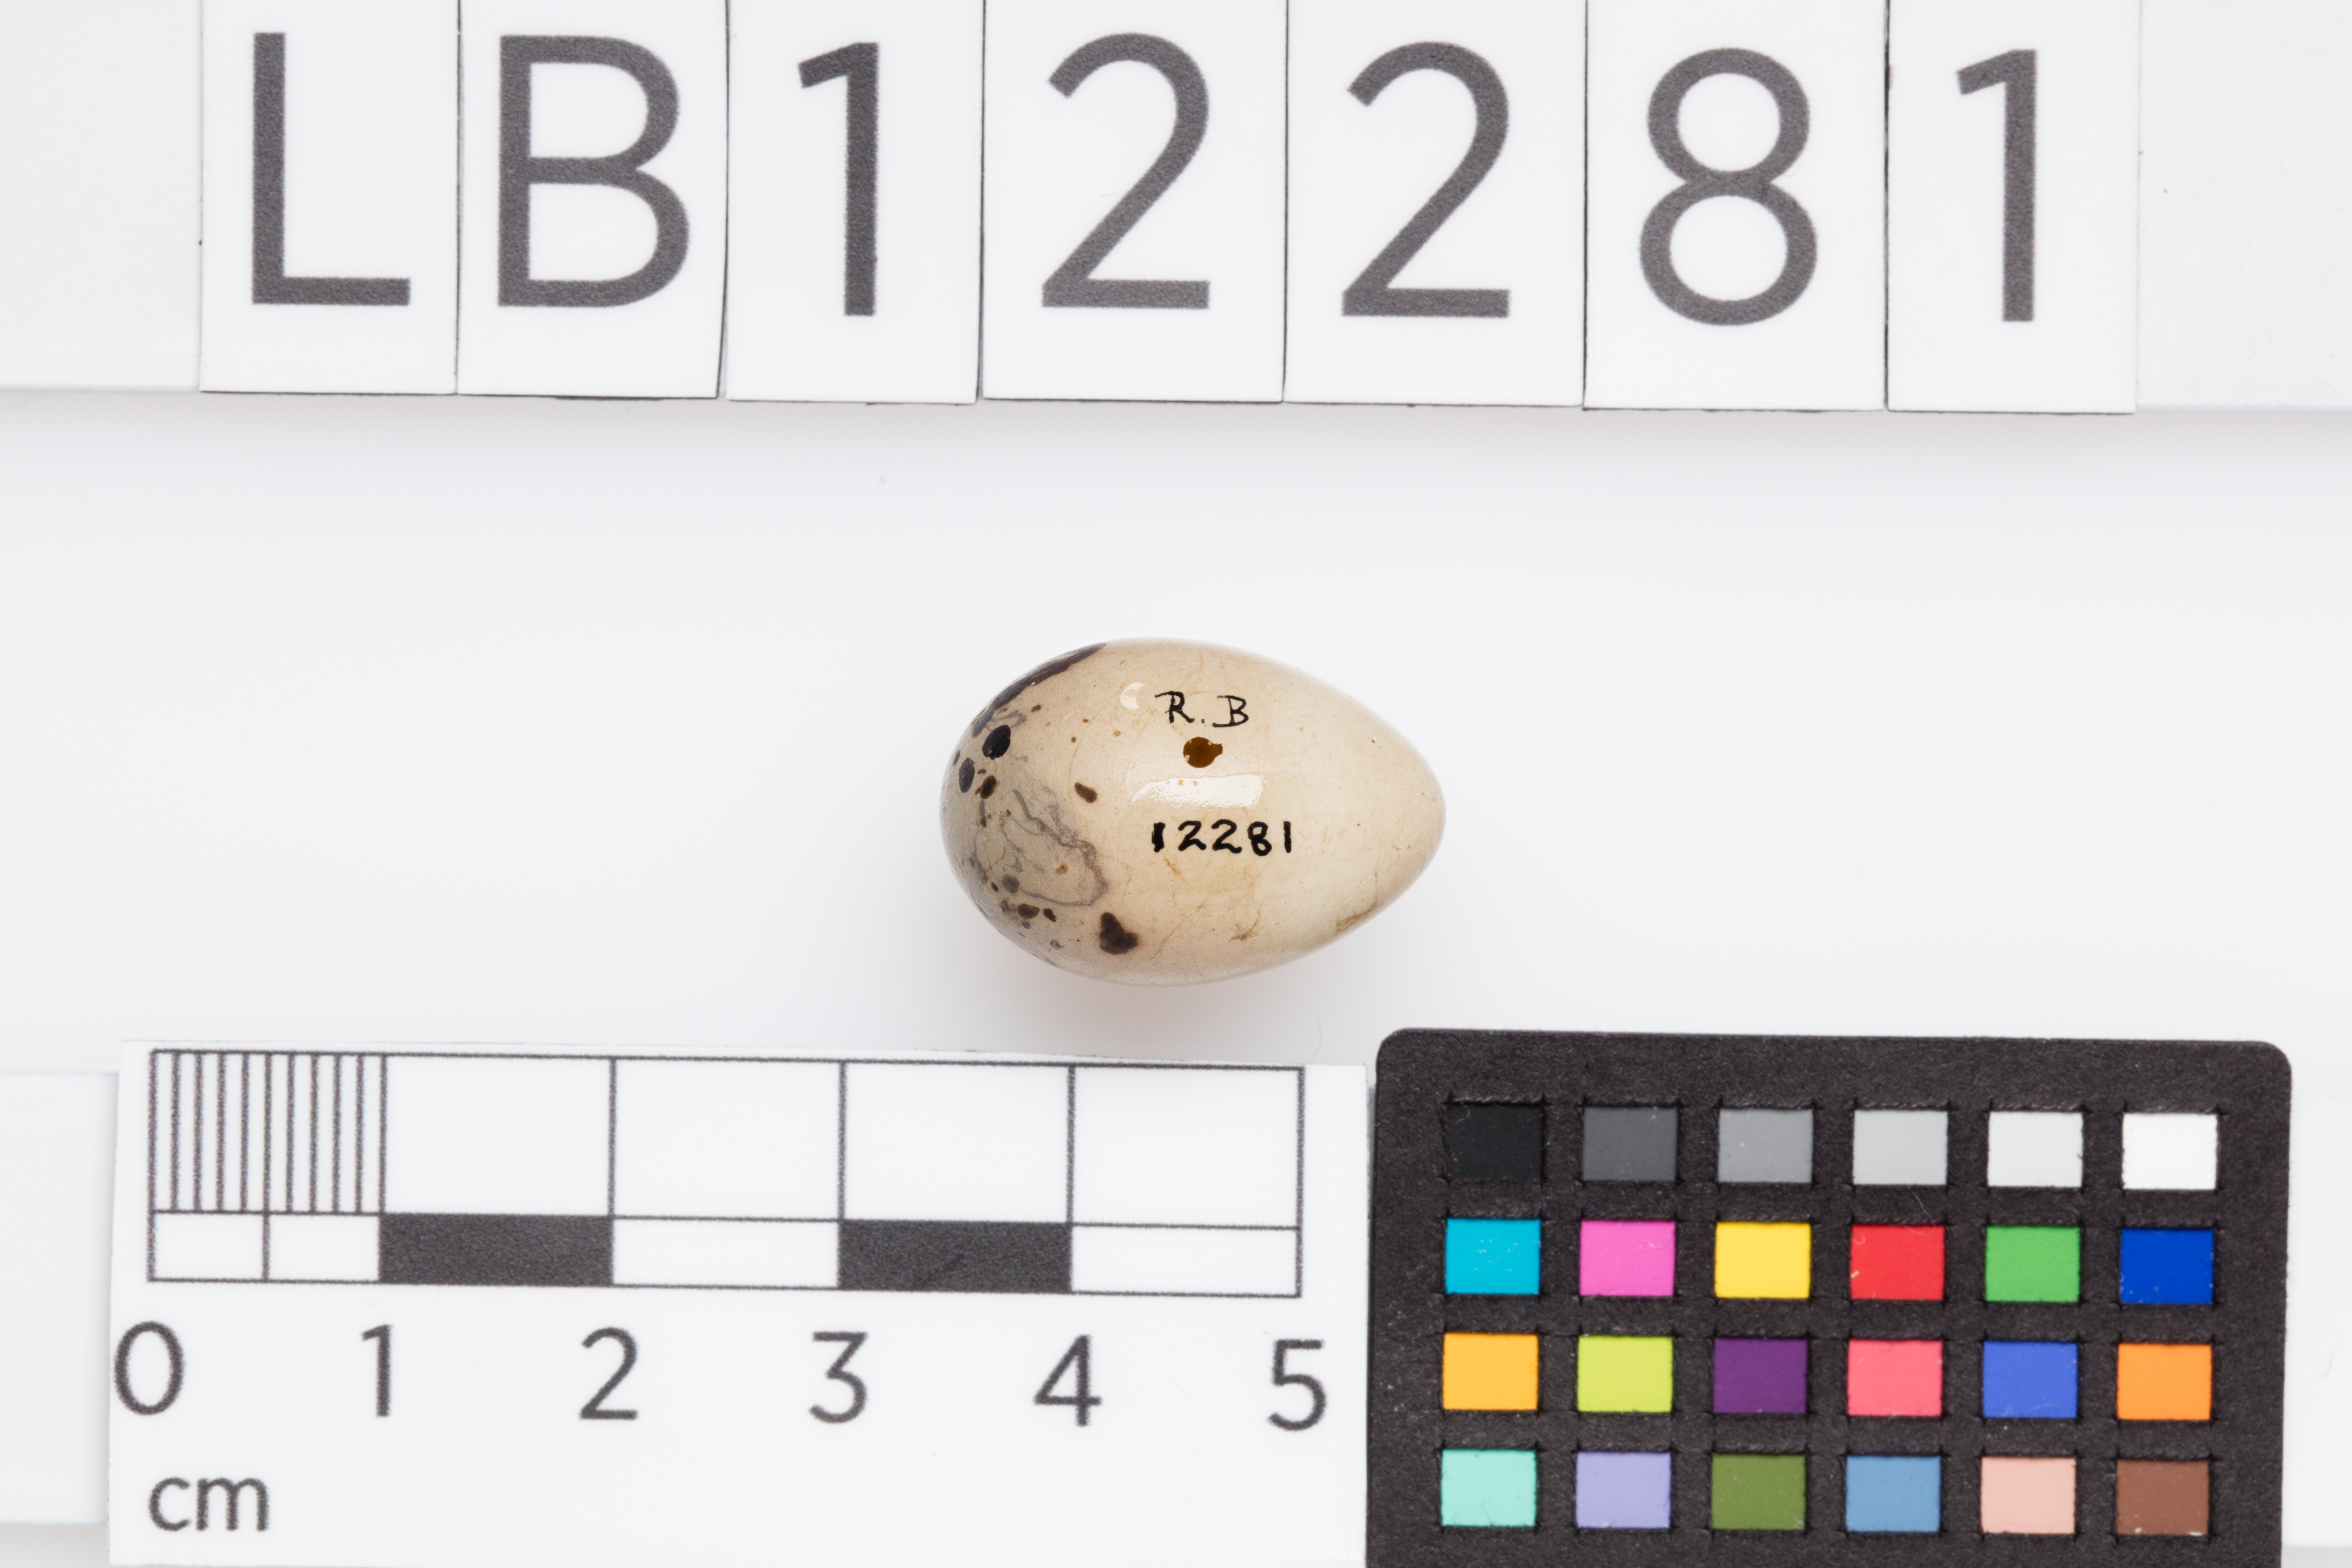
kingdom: Animalia
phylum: Chordata
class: Aves
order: Passeriformes
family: Emberizidae
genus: Emberiza
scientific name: Emberiza schoeniclus
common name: Reed bunting
